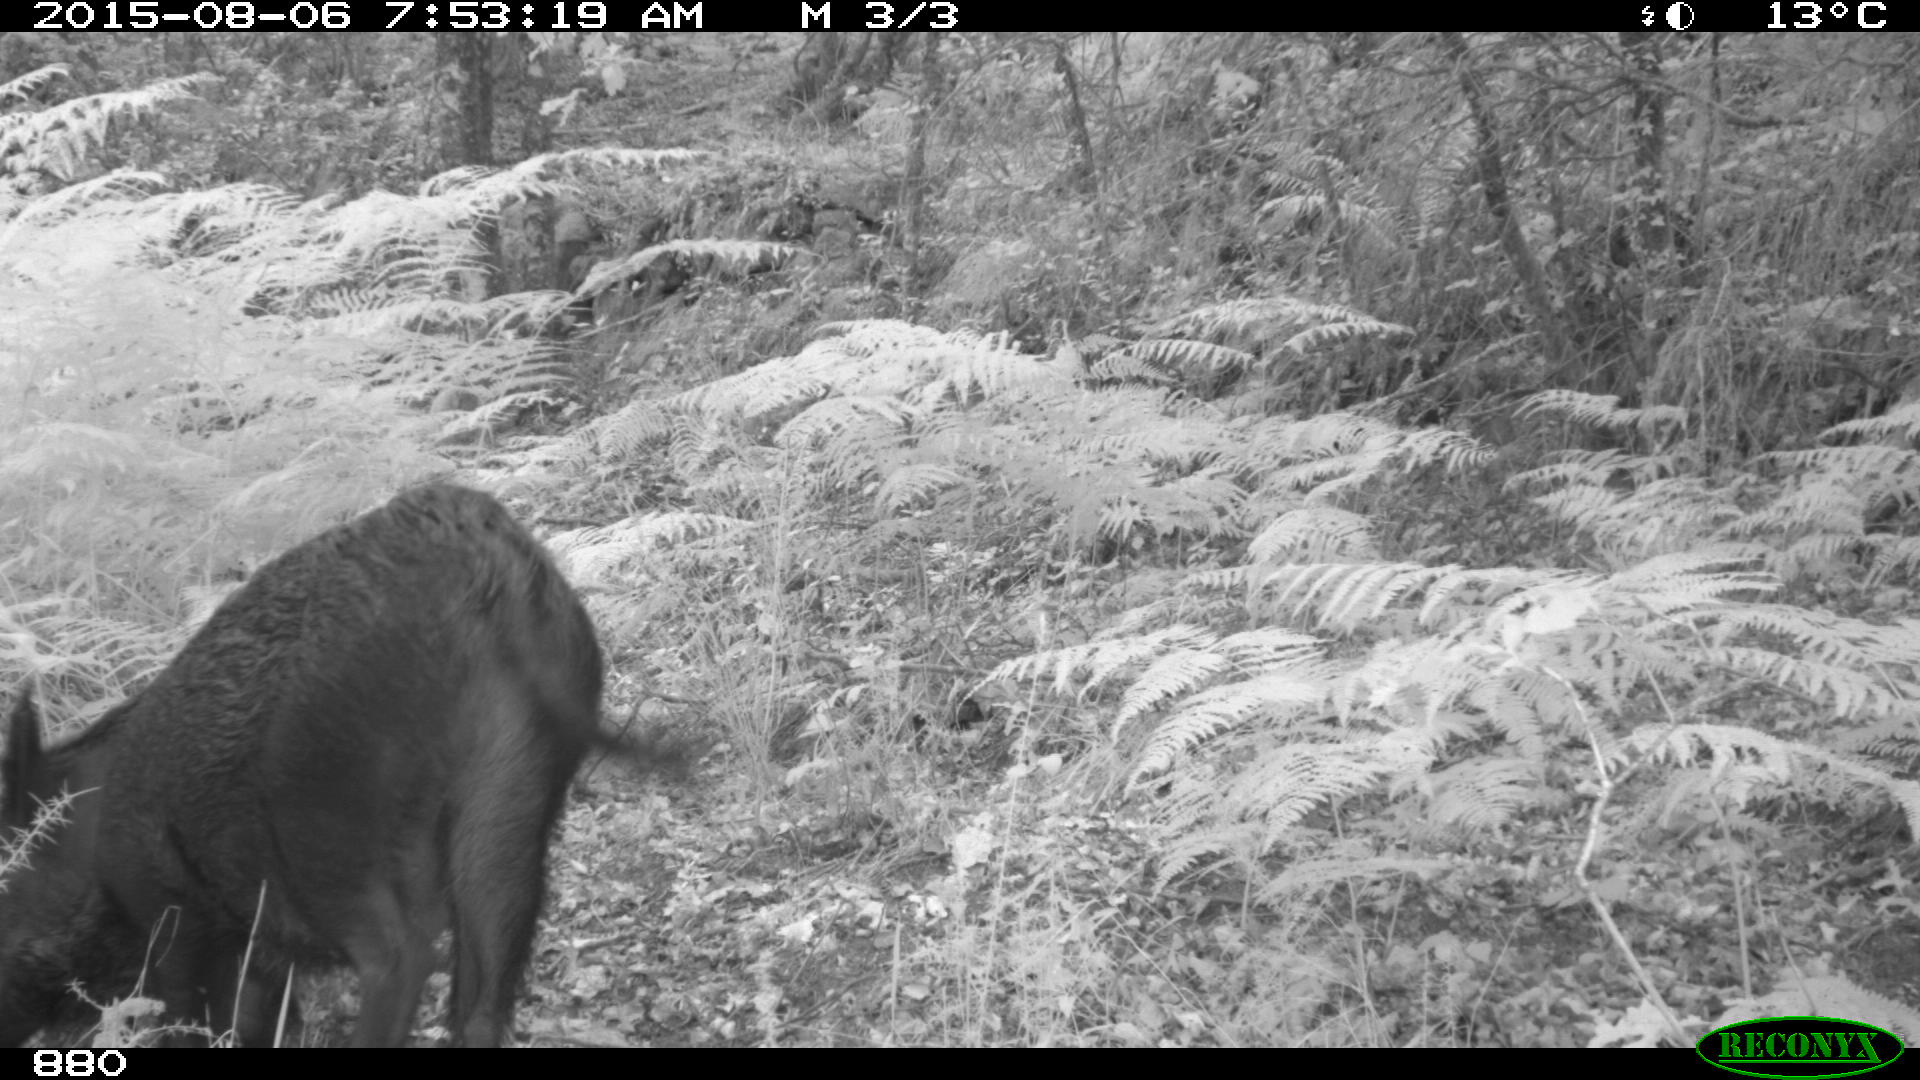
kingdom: Animalia
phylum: Chordata
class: Mammalia
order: Artiodactyla
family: Suidae
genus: Sus
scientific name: Sus scrofa
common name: Wild boar
